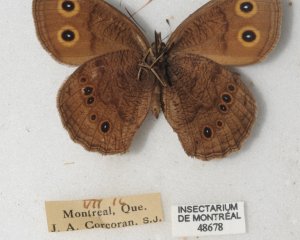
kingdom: Animalia
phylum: Arthropoda
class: Insecta
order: Lepidoptera
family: Nymphalidae
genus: Cercyonis
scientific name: Cercyonis pegala
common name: Common Wood-Nymph
